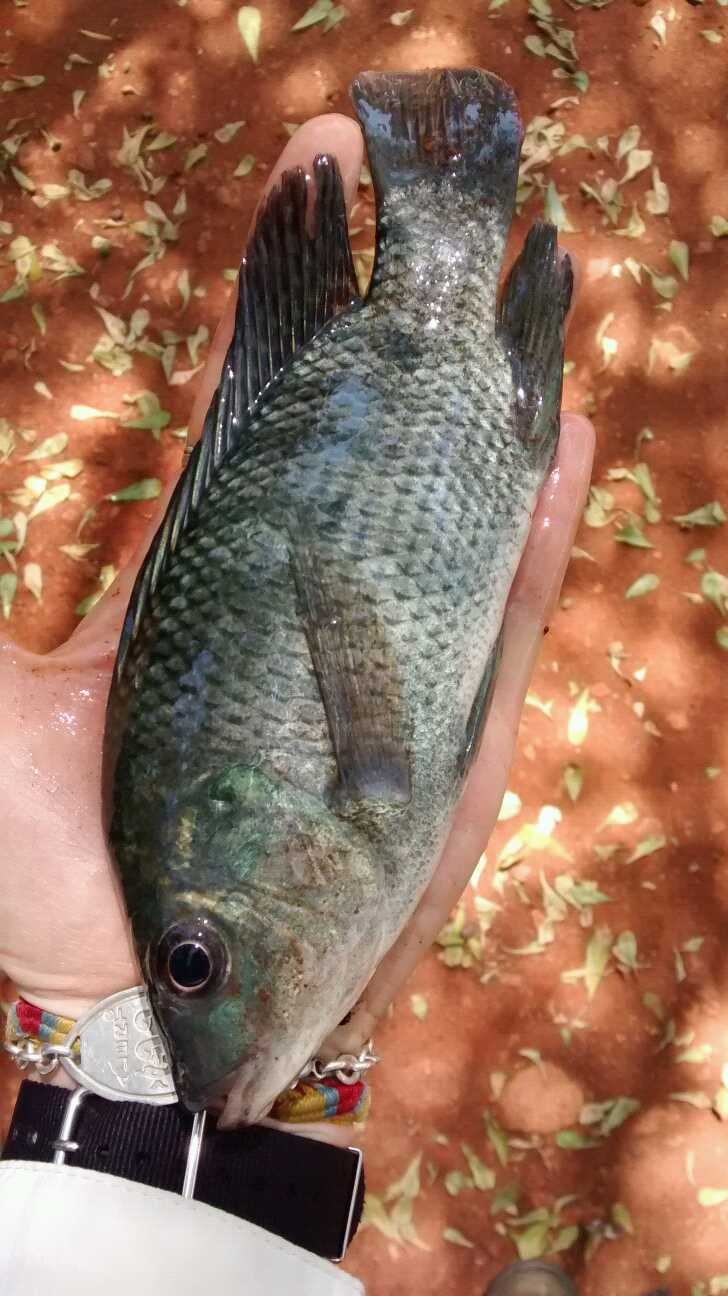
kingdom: Animalia
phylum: Chordata
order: Perciformes
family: Cichlidae
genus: Oreochromis
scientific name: Oreochromis niloticus
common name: Nile tilapia
